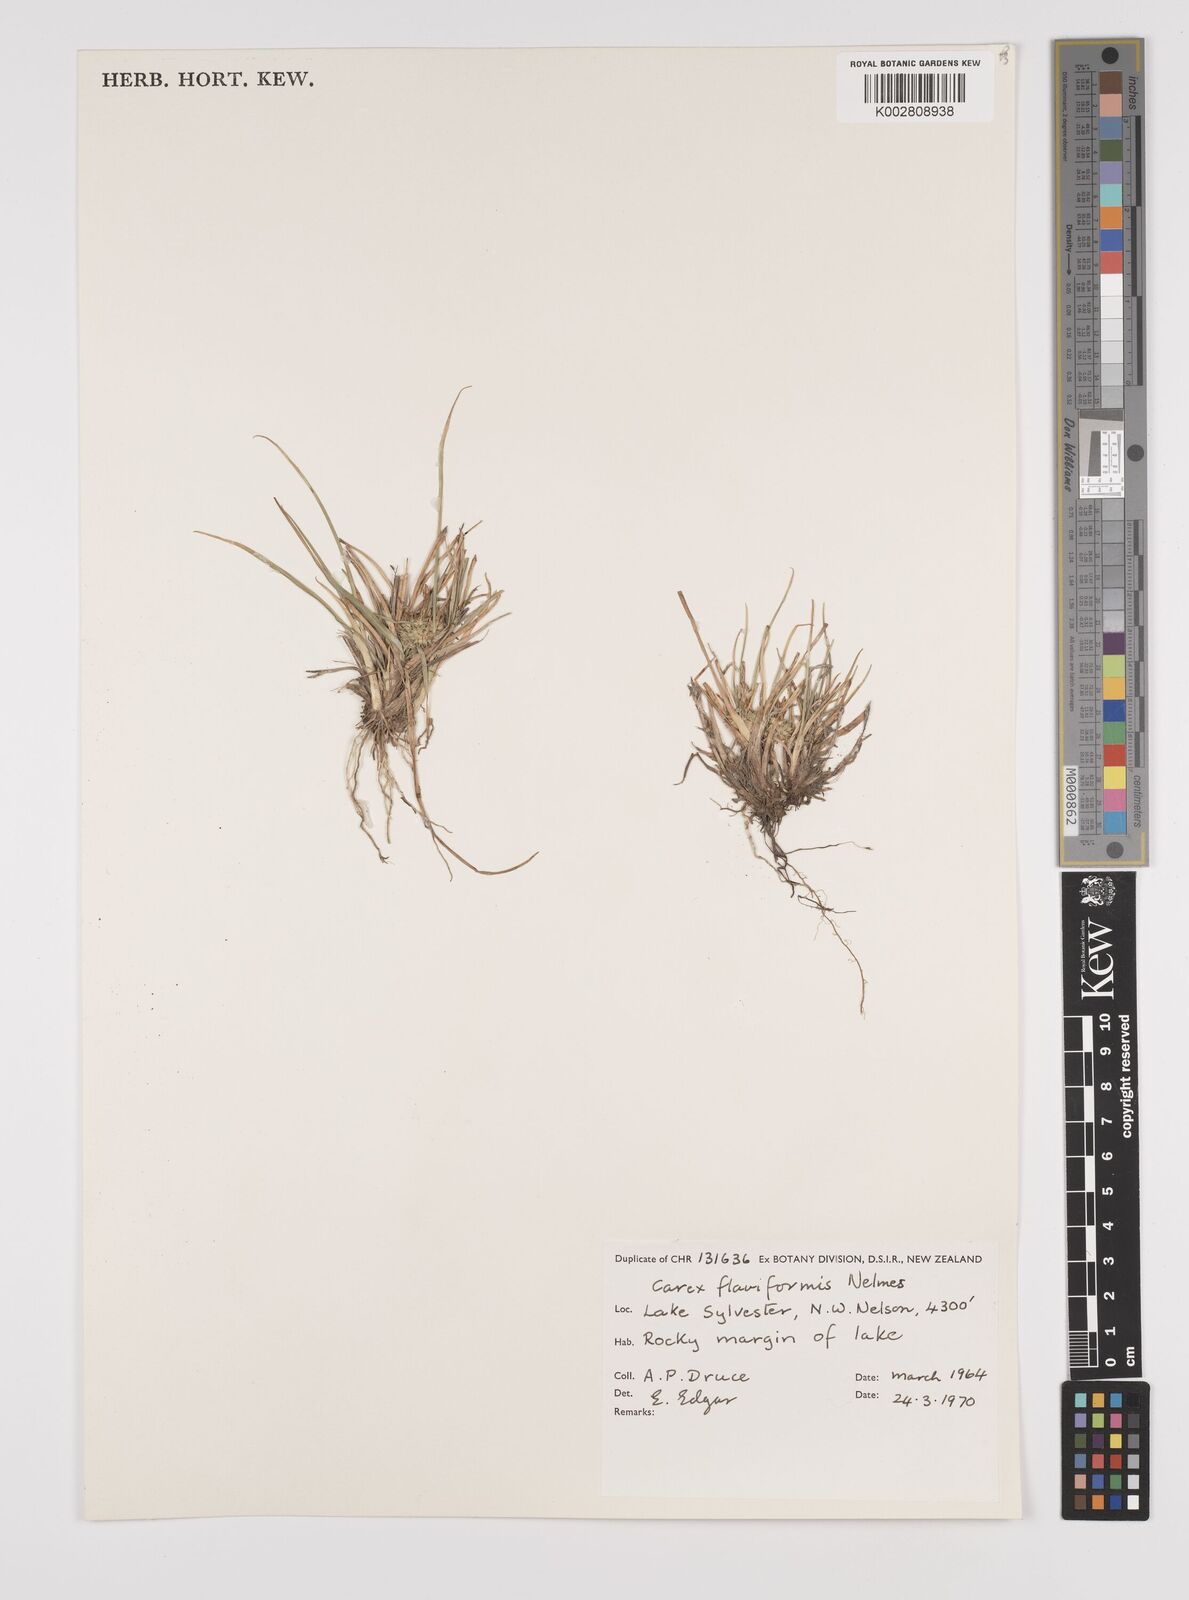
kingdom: Plantae
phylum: Tracheophyta
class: Liliopsida
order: Poales
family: Cyperaceae
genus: Carex
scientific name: Carex flaviformis
